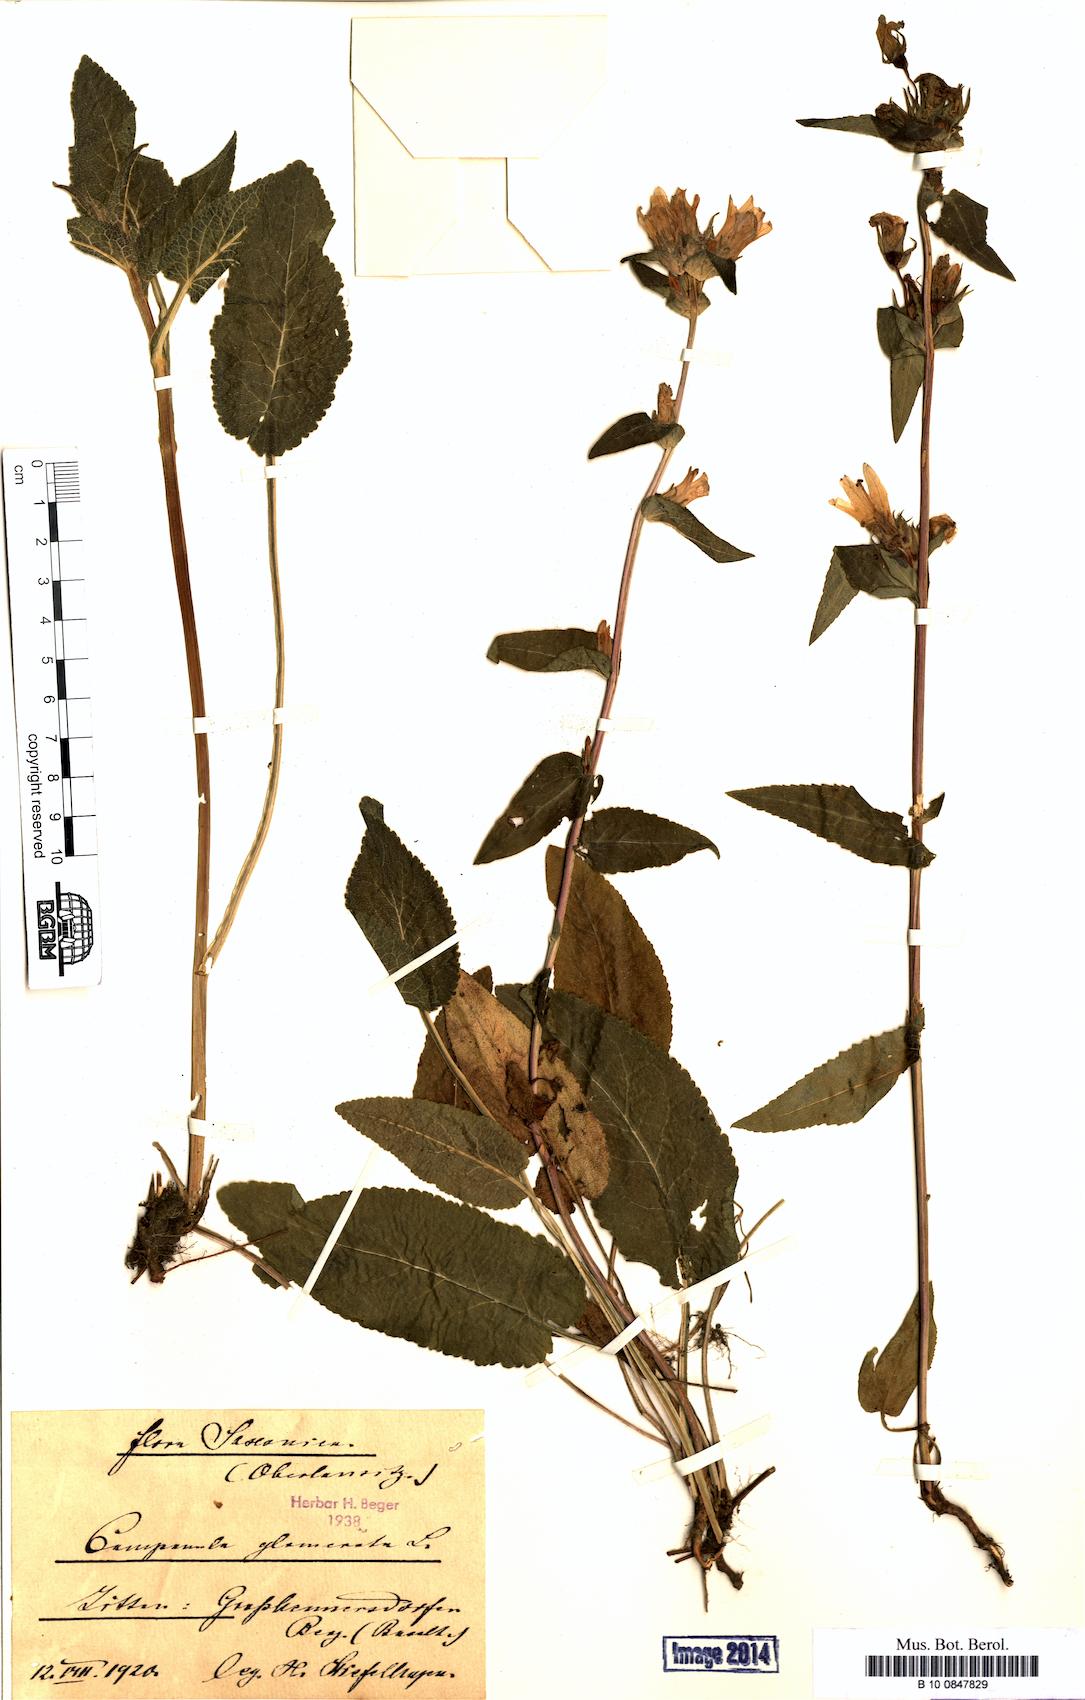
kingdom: Plantae
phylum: Tracheophyta
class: Magnoliopsida
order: Asterales
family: Campanulaceae
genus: Campanula
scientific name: Campanula glomerata
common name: Clustered bellflower
